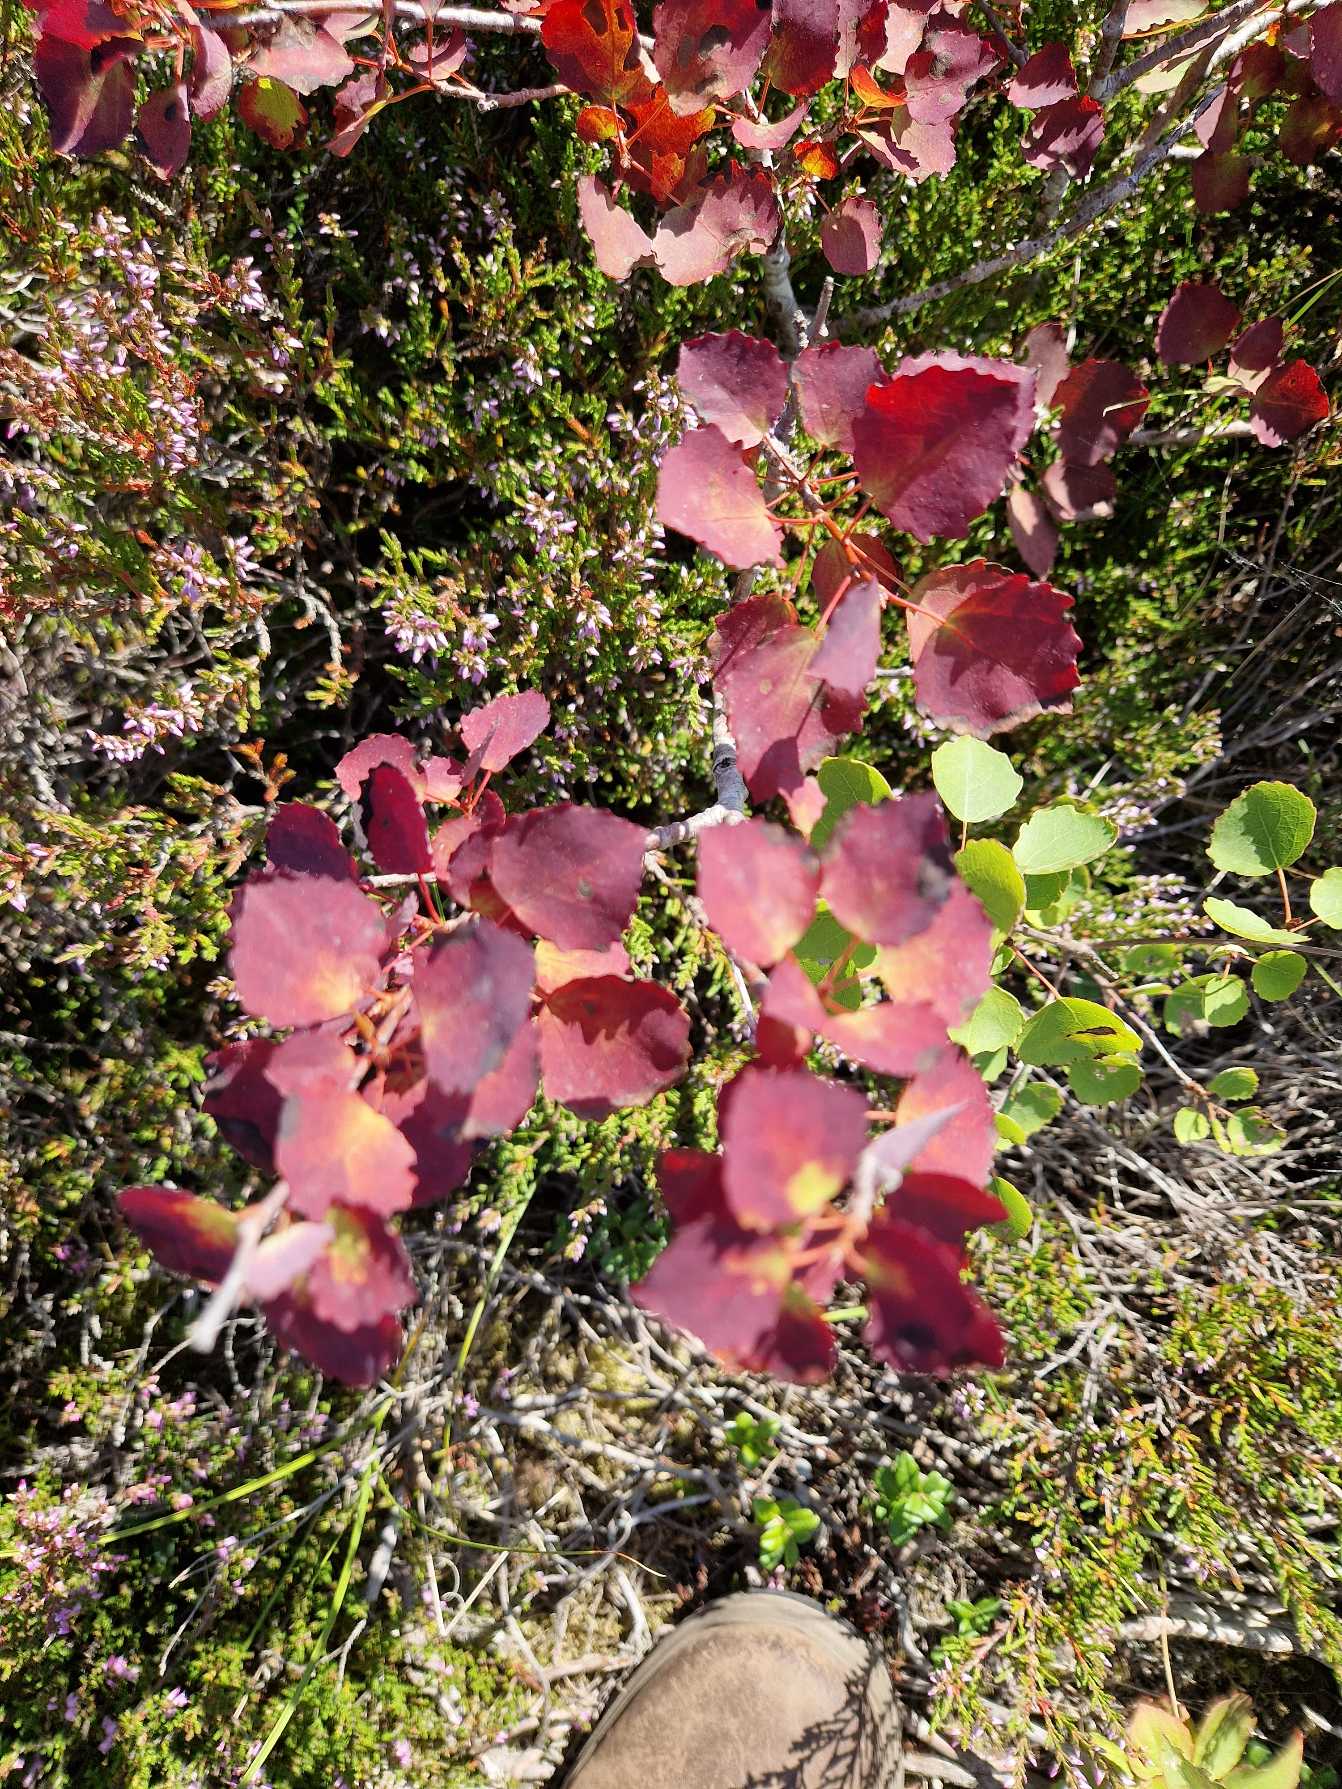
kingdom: Plantae
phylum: Tracheophyta
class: Magnoliopsida
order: Malpighiales
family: Salicaceae
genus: Populus
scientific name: Populus tremula
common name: Bævreasp
